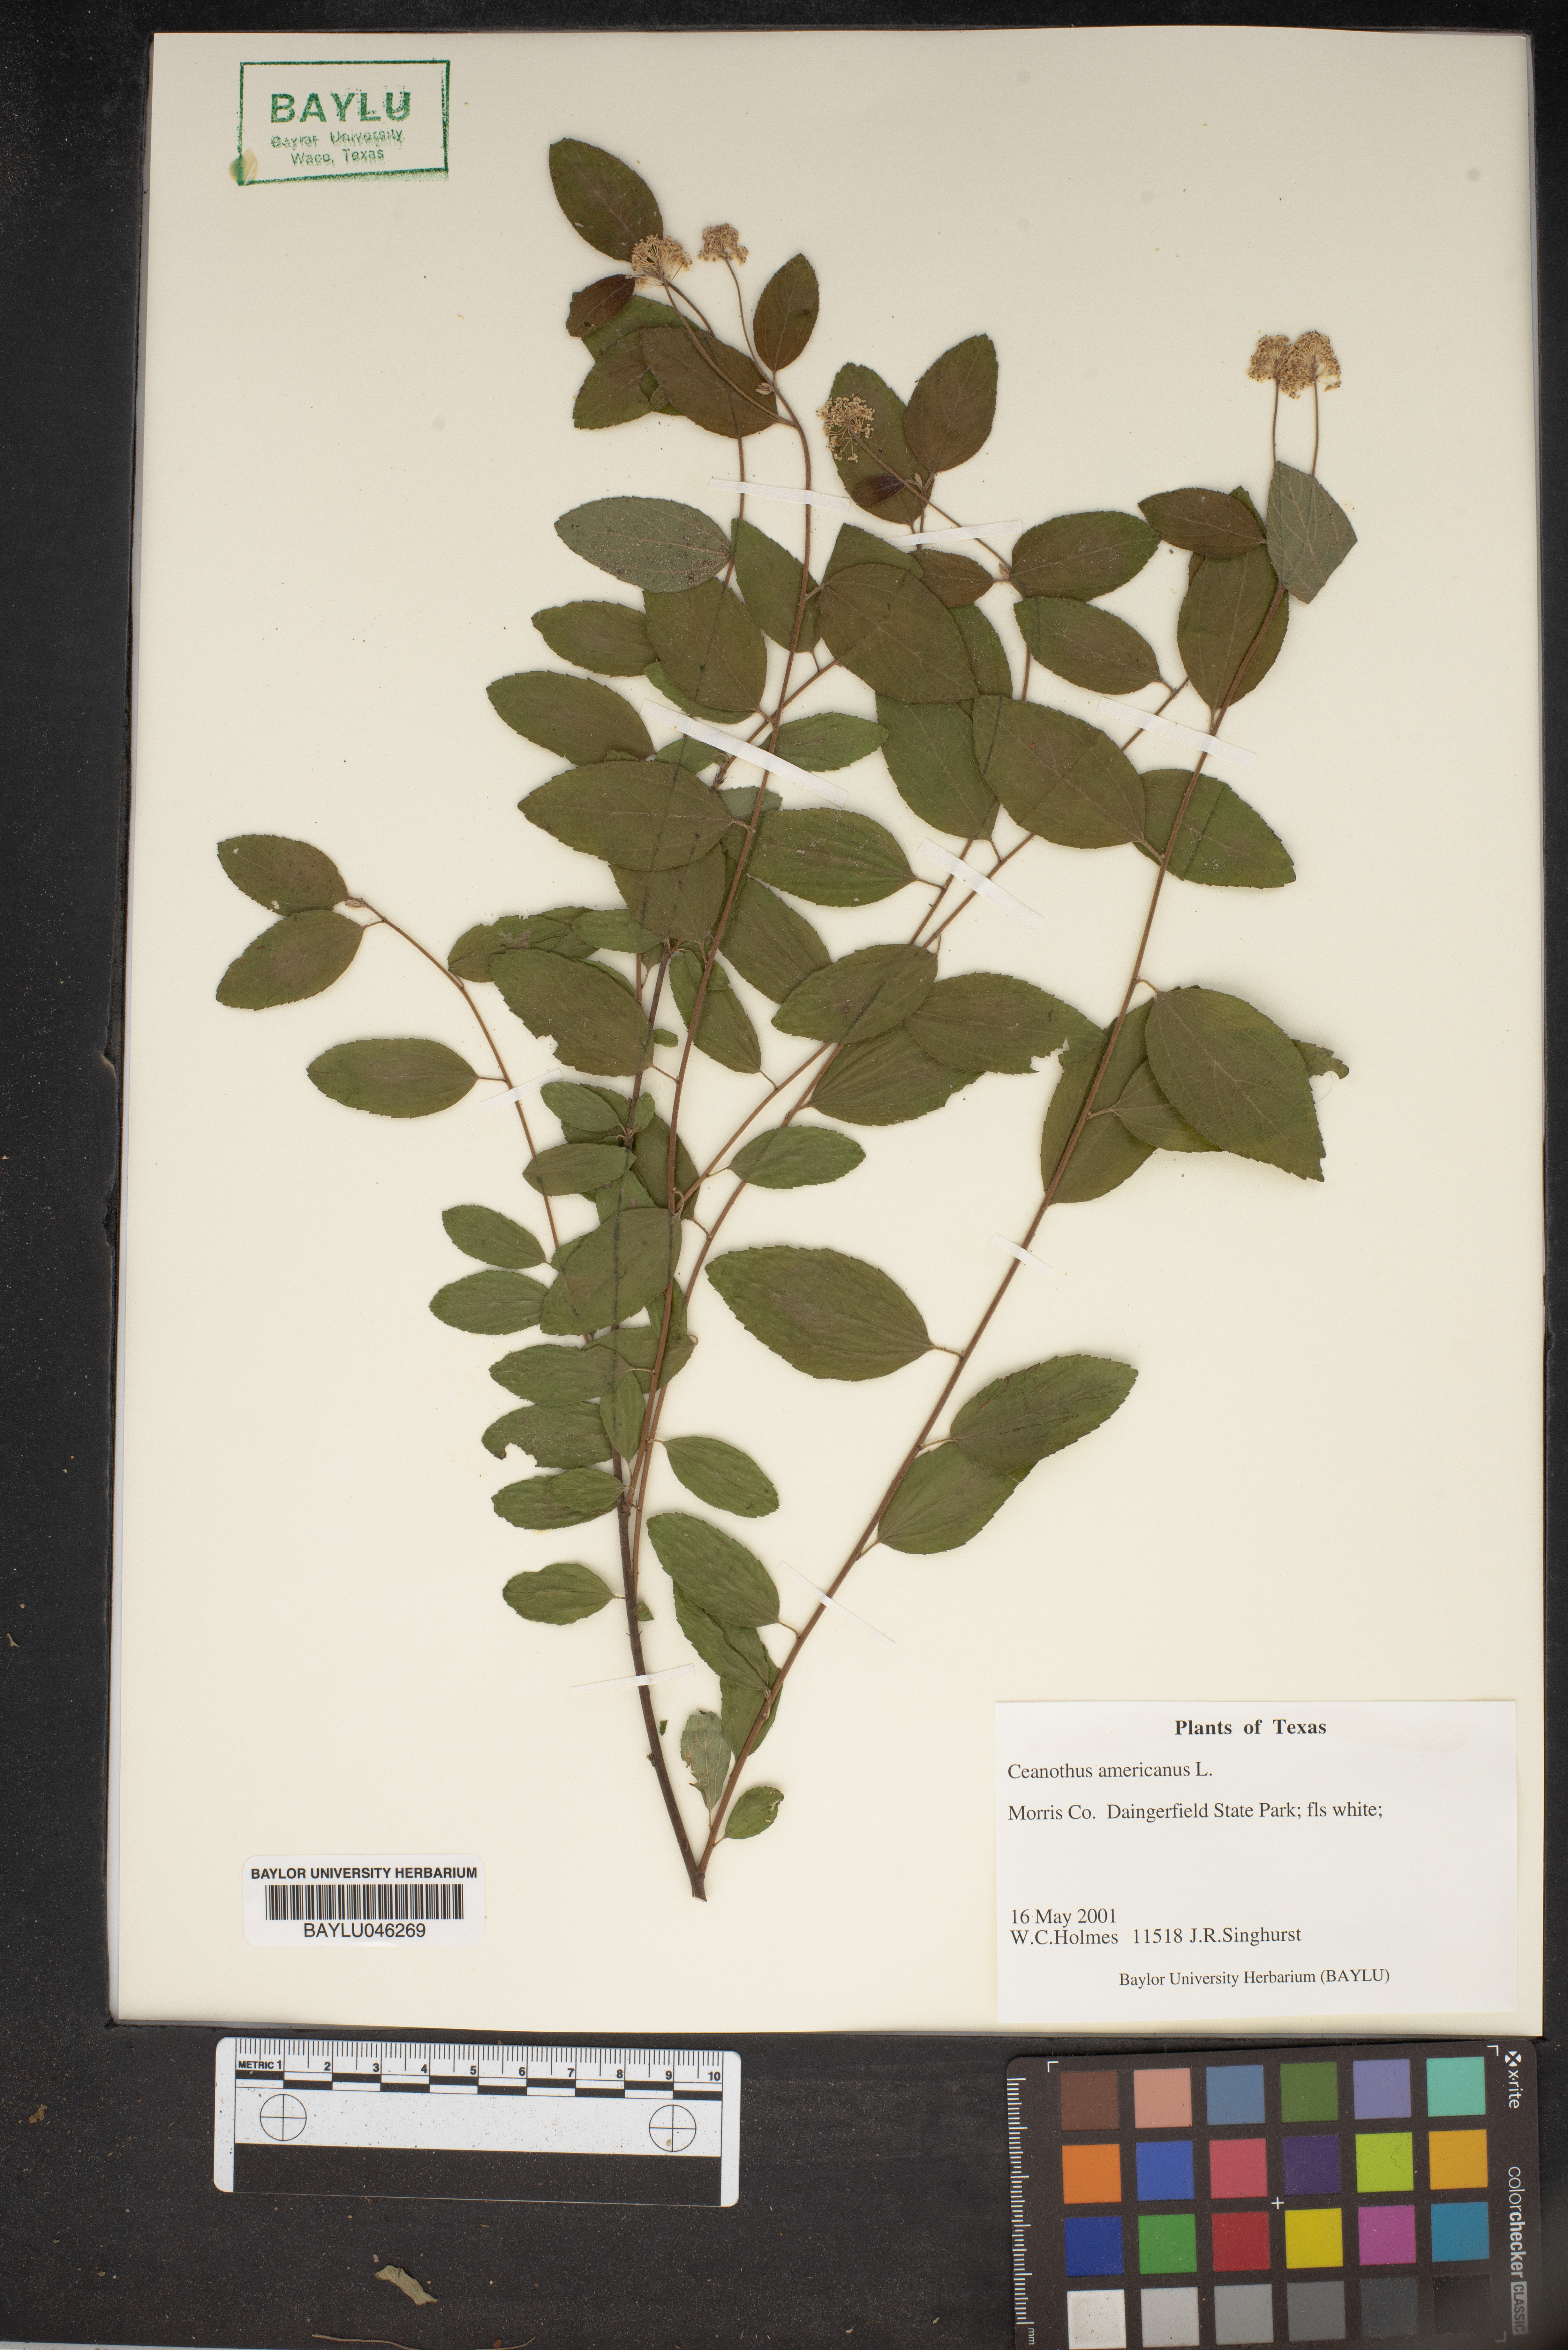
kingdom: Plantae
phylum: Tracheophyta
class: Magnoliopsida
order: Rosales
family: Rhamnaceae
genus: Ceanothus
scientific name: Ceanothus americanus
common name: Redroot
